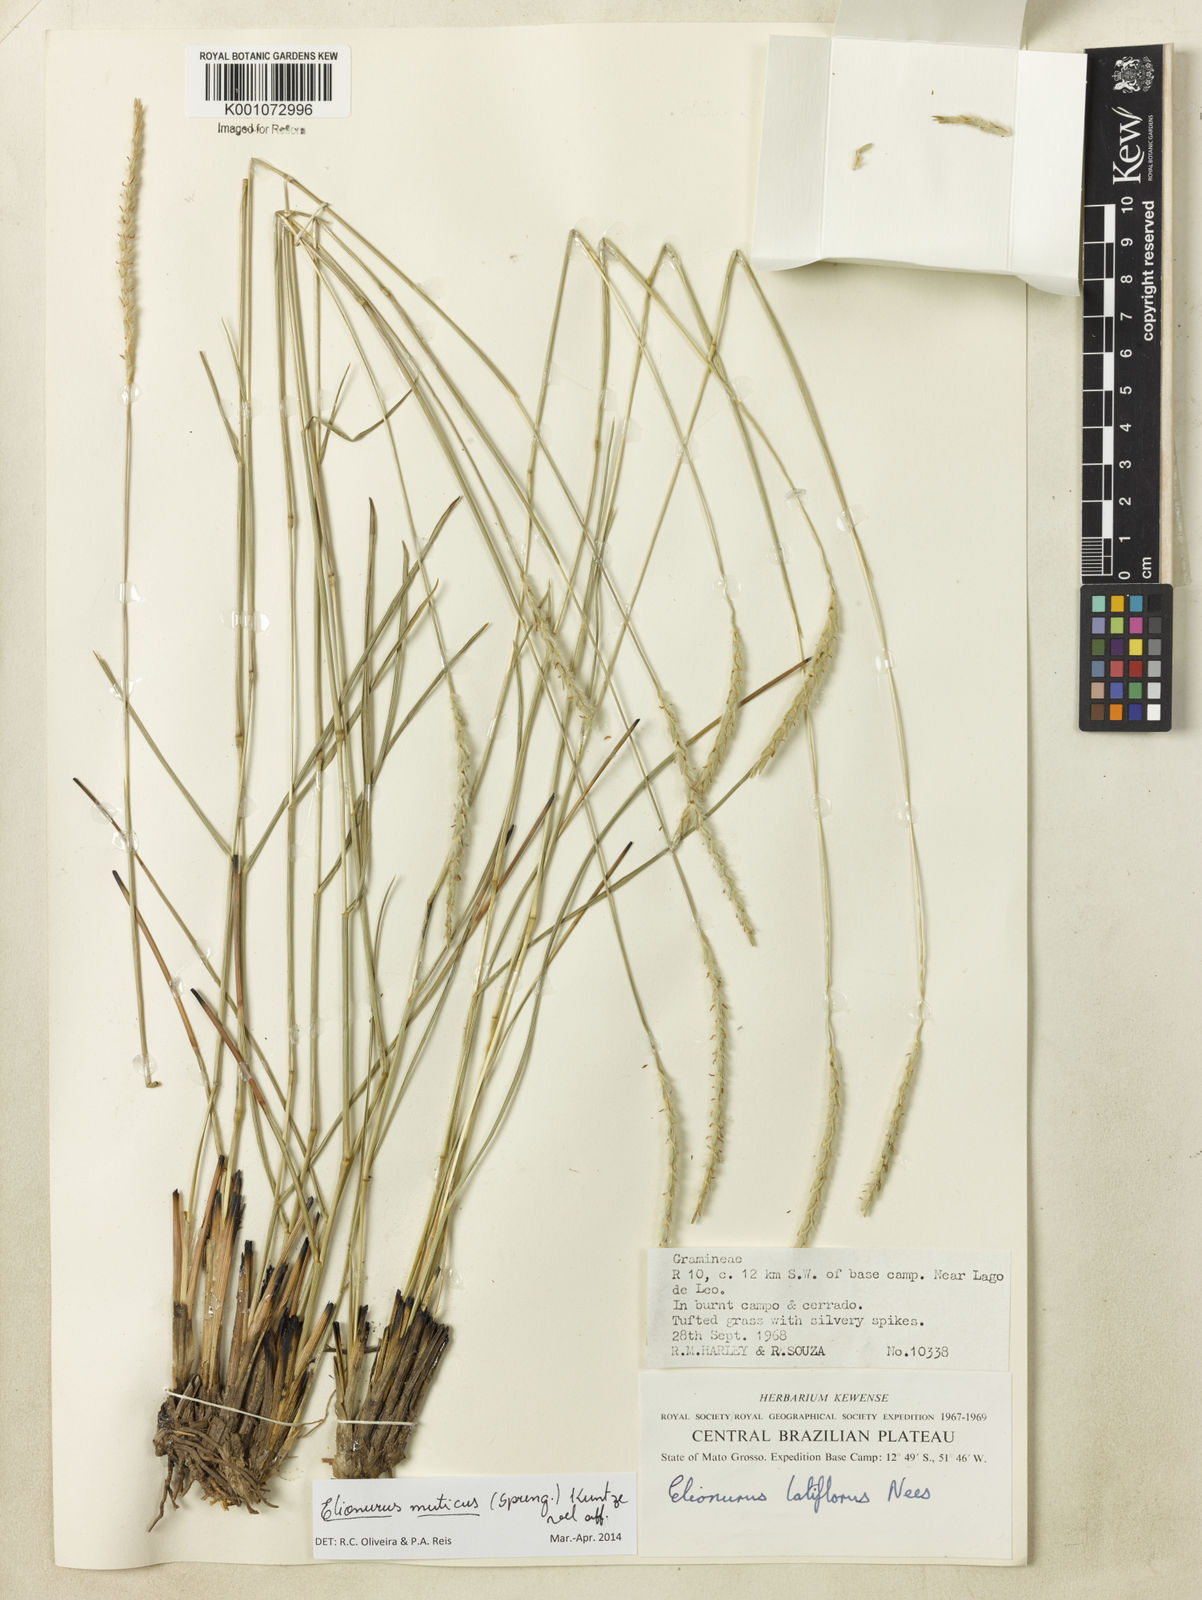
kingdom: Plantae
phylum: Tracheophyta
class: Liliopsida
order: Poales
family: Poaceae
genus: Elionurus
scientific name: Elionurus muticus
